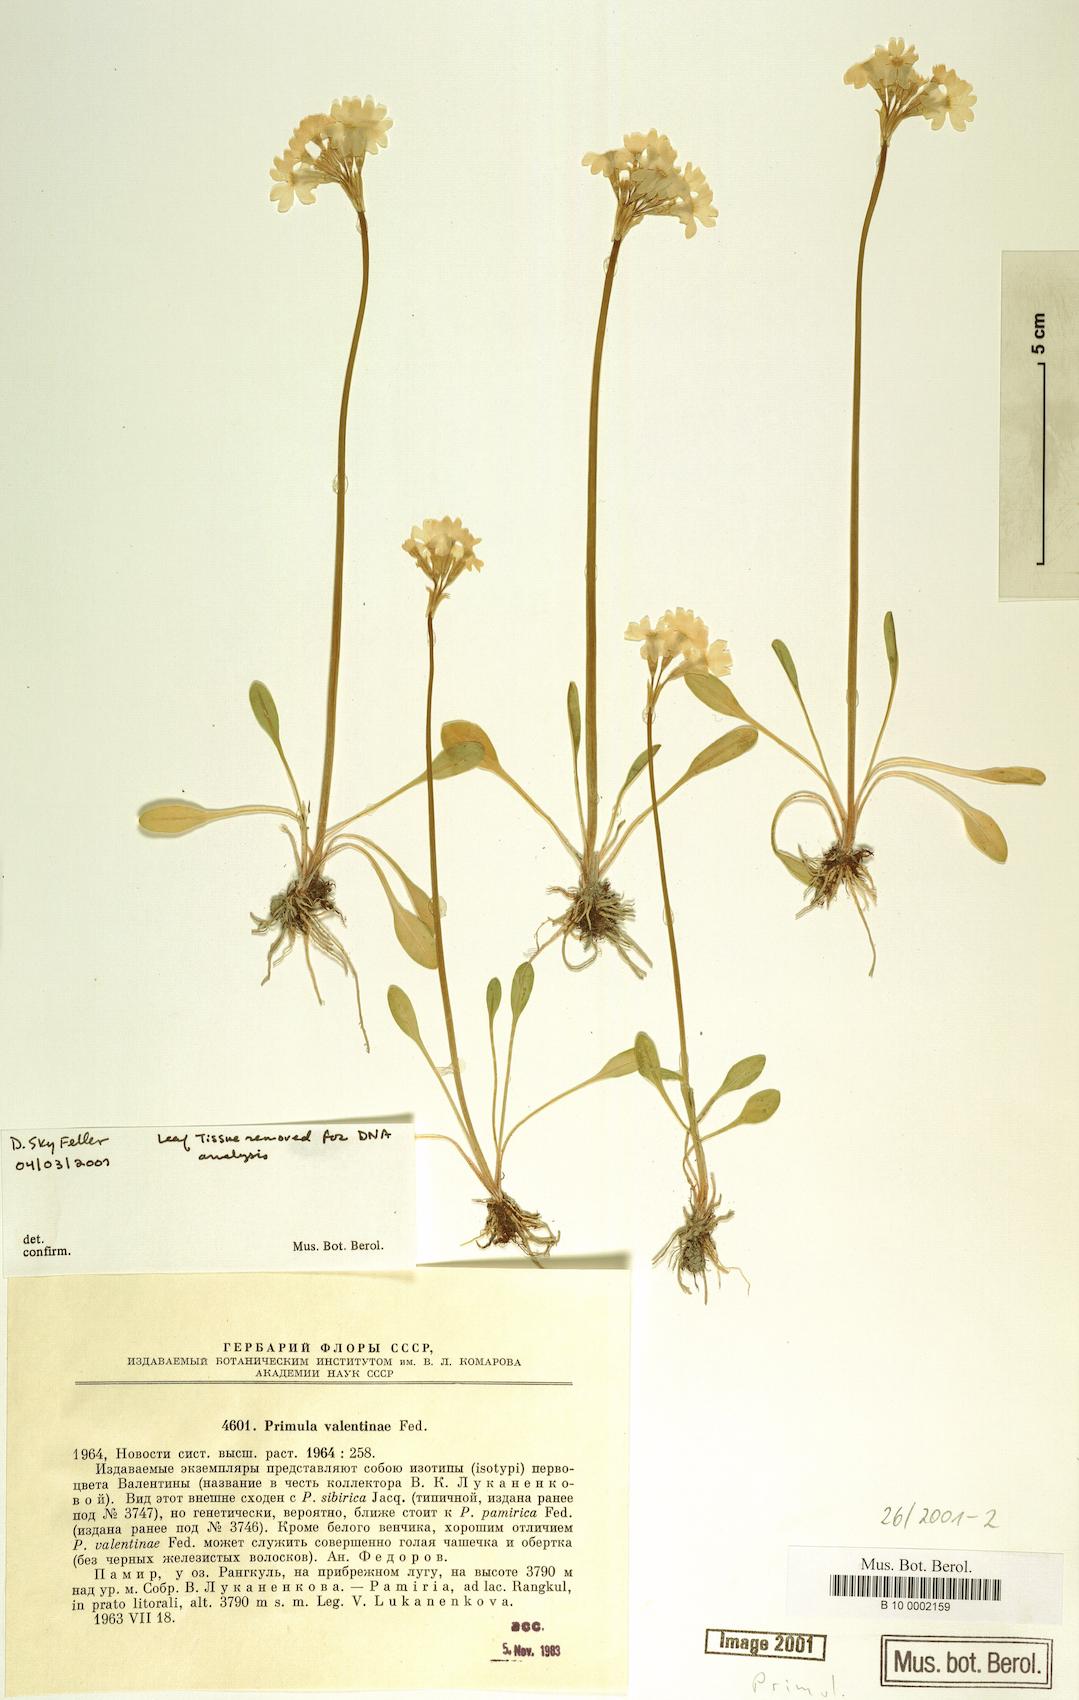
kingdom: Plantae
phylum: Tracheophyta
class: Magnoliopsida
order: Ericales
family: Primulaceae
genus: Primula
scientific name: Primula valentinae
